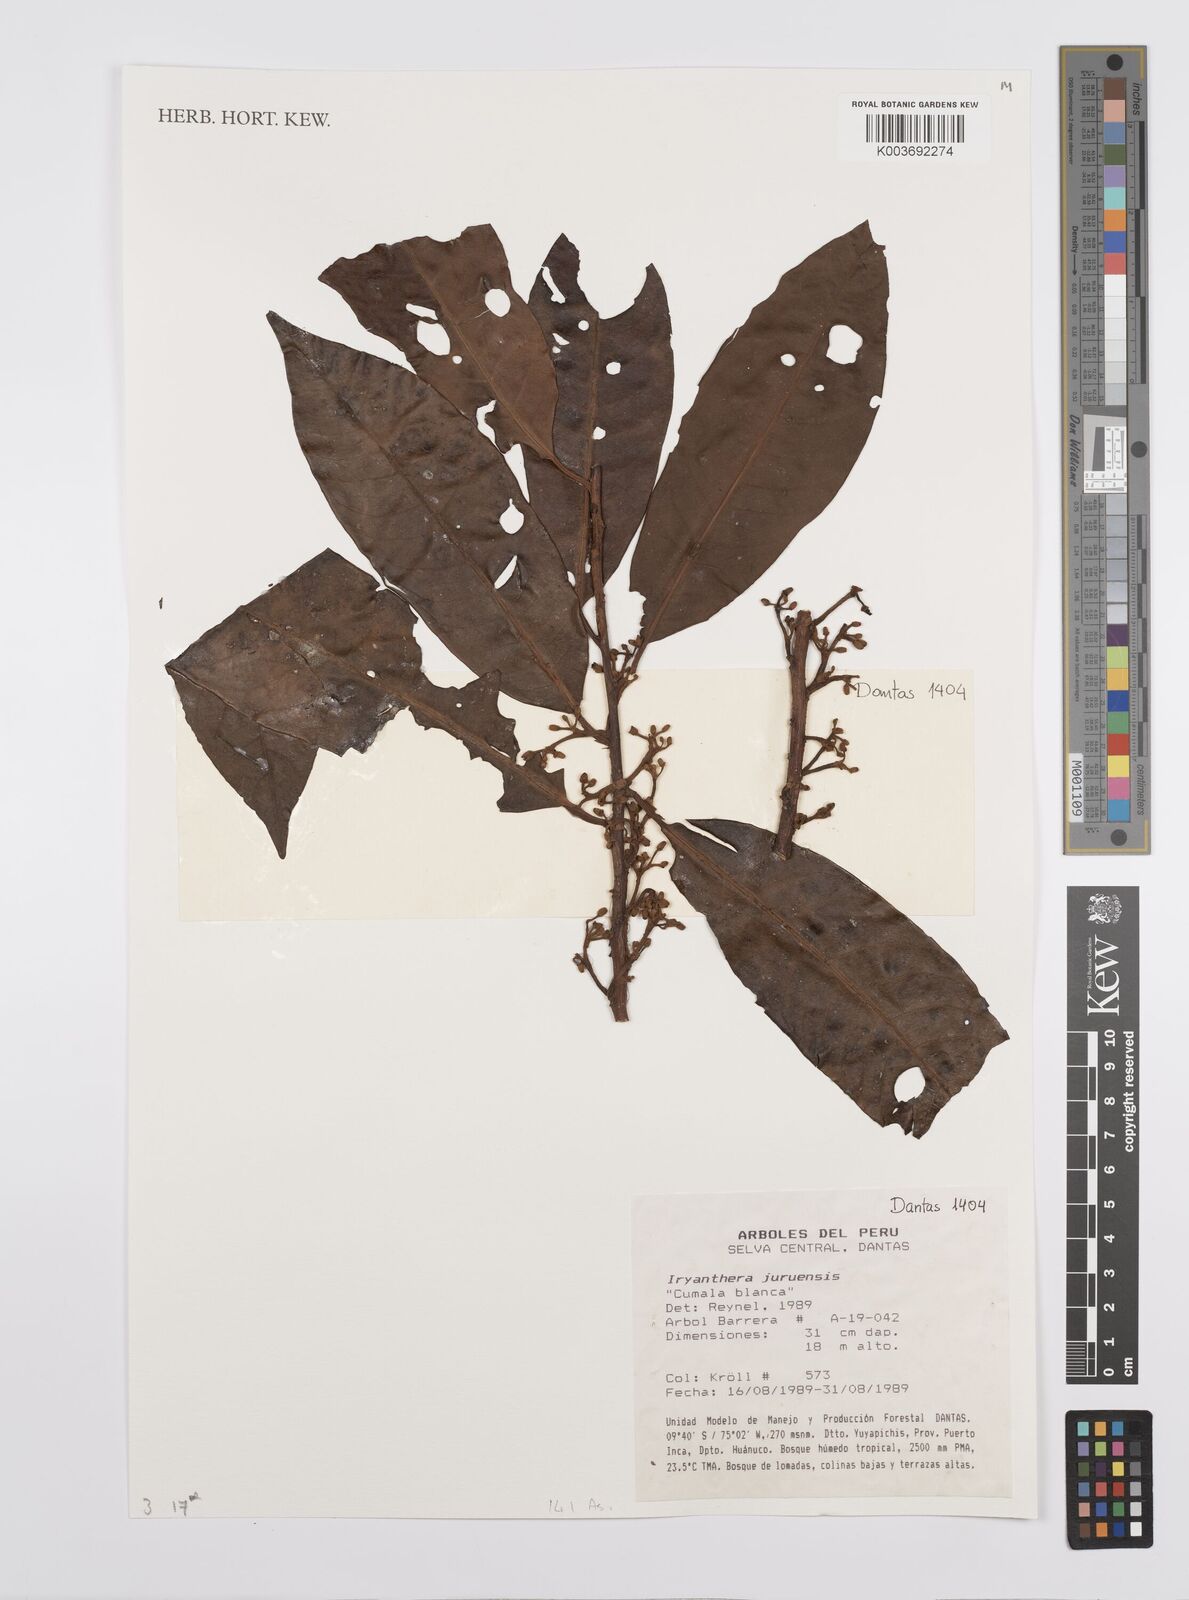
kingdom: Plantae
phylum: Tracheophyta
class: Magnoliopsida
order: Magnoliales
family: Myristicaceae
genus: Iryanthera
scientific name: Iryanthera juruensis
